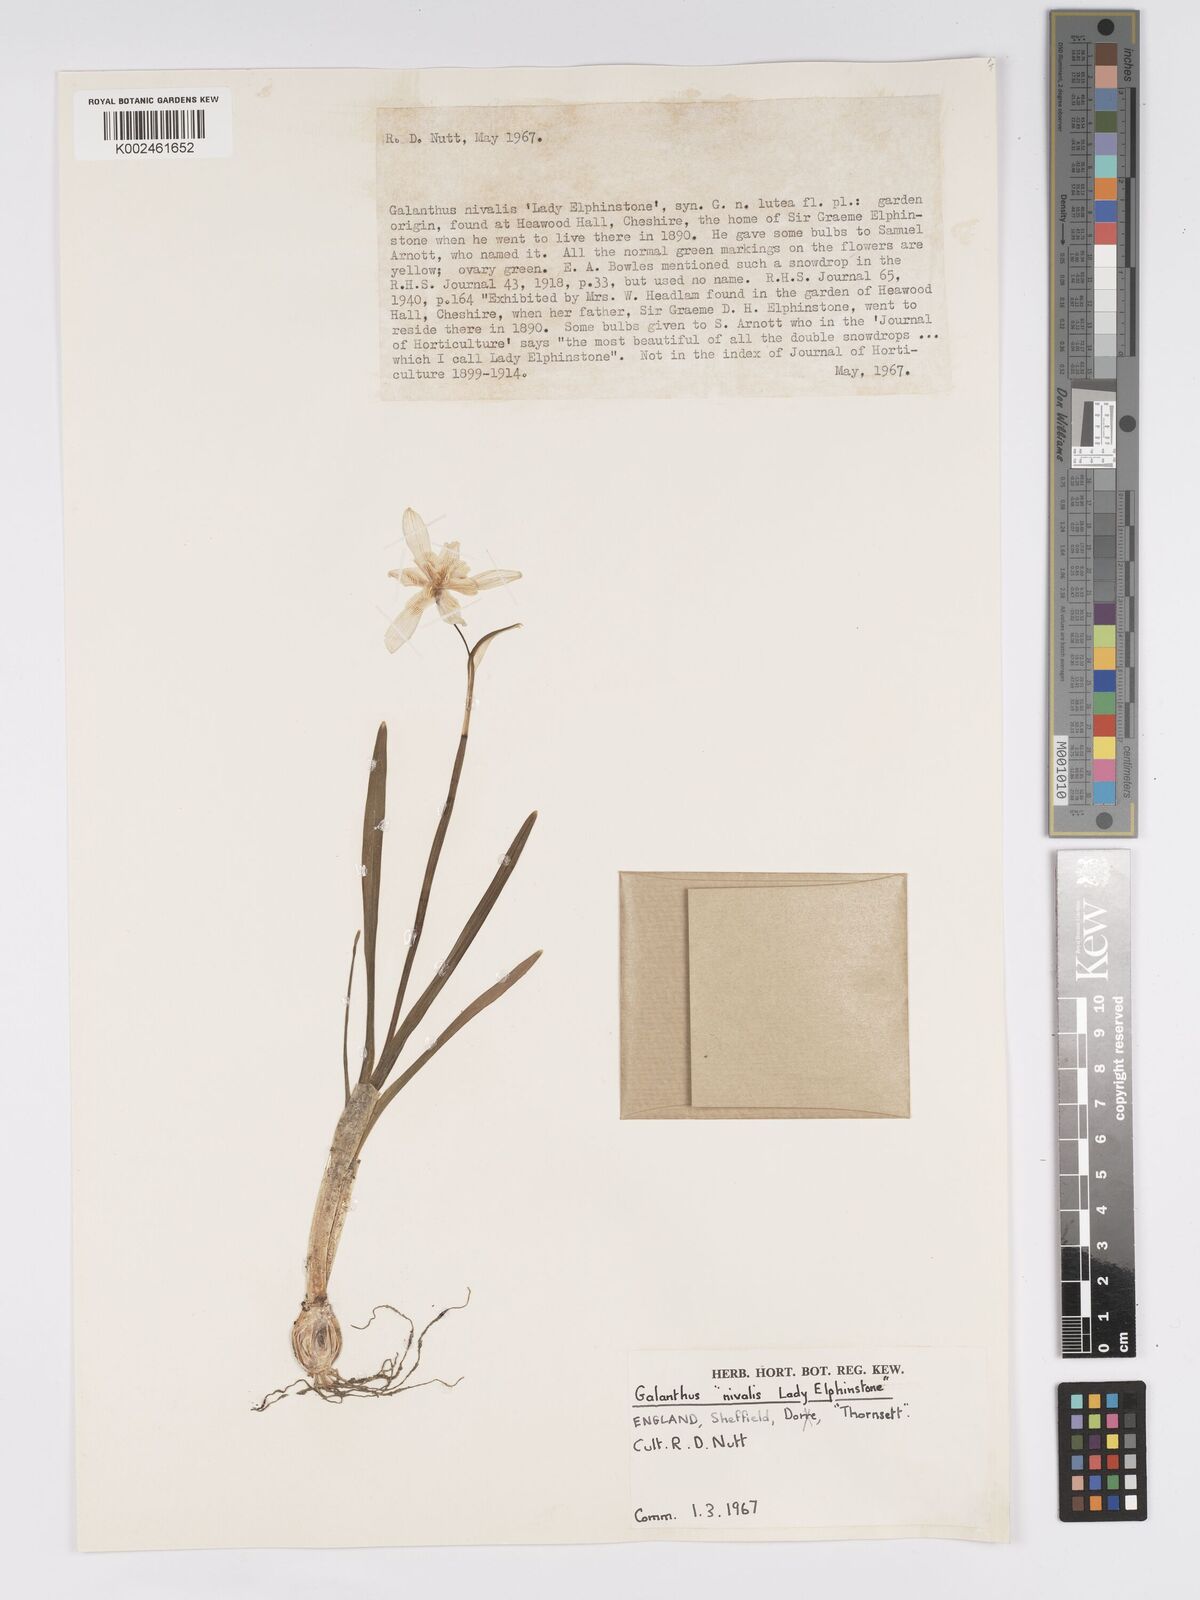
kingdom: Plantae
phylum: Tracheophyta
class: Liliopsida
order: Asparagales
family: Amaryllidaceae
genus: Galanthus
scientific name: Galanthus nivalis
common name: Snowdrop
